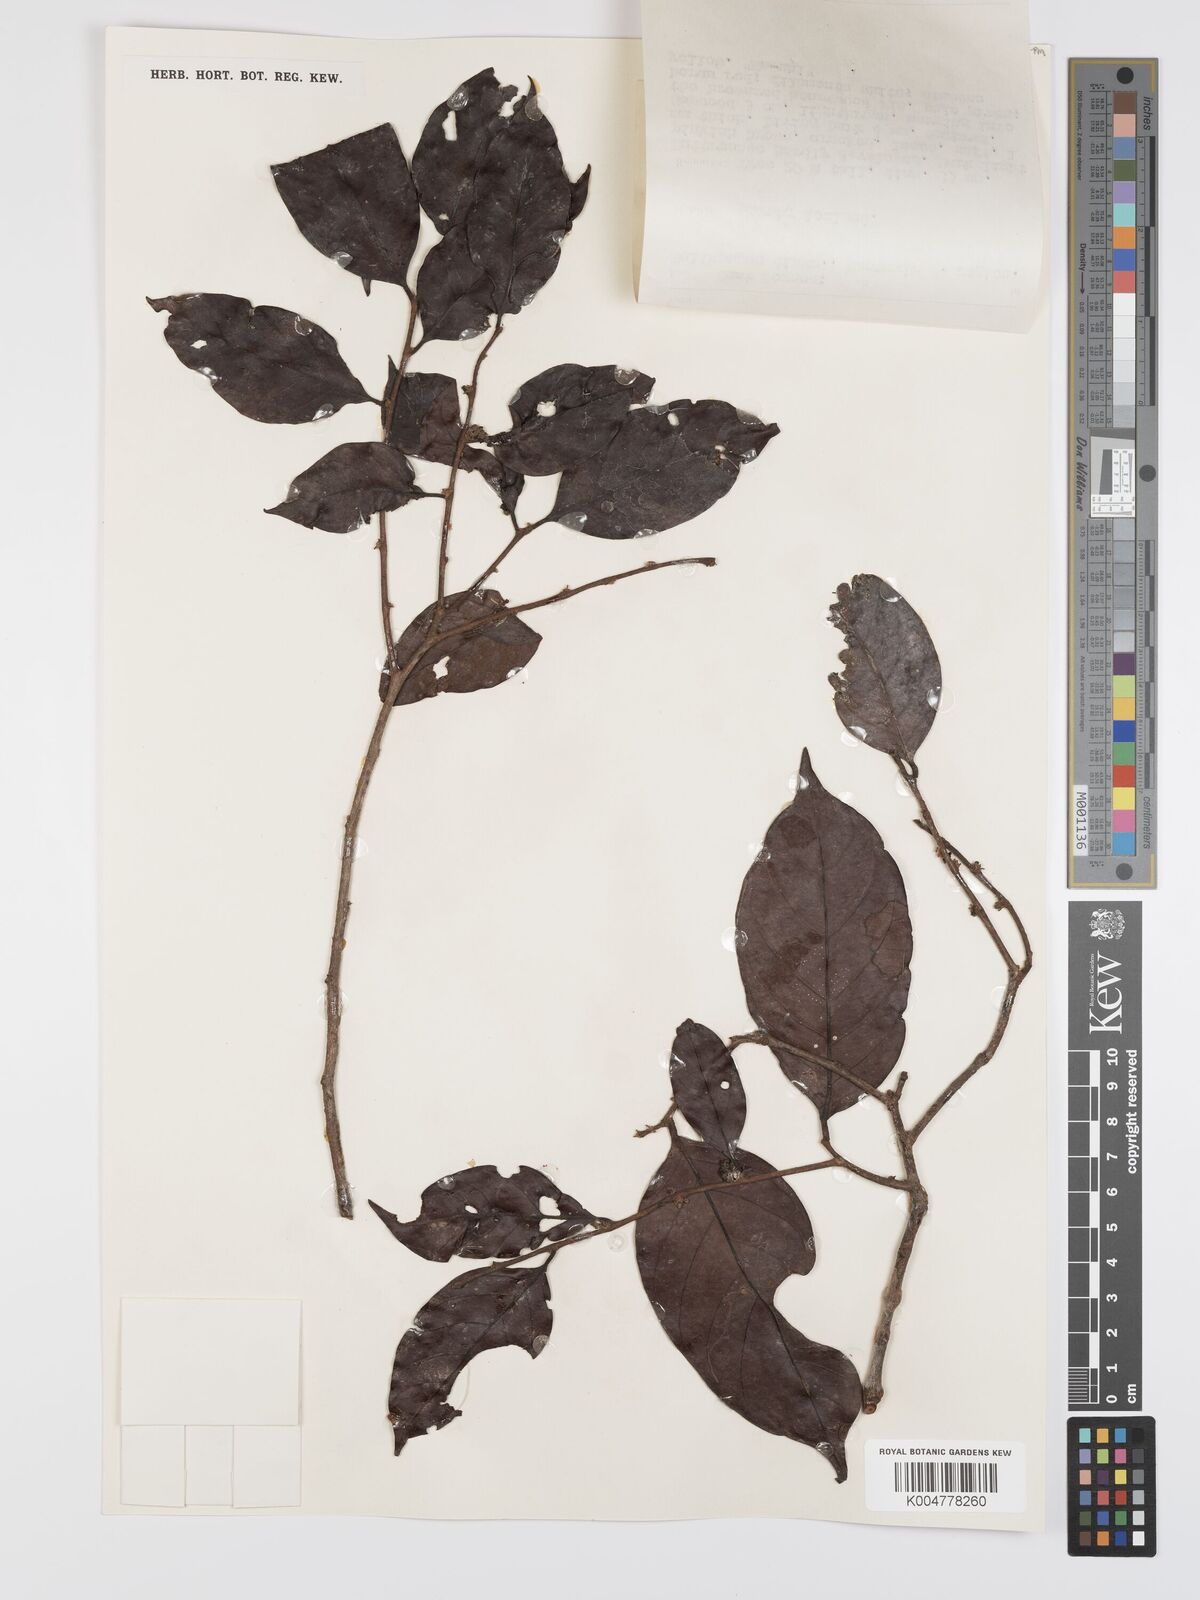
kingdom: Plantae
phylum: Tracheophyta
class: Magnoliopsida
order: Malpighiales
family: Peraceae
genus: Chaetocarpus
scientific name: Chaetocarpus castanocarpus
